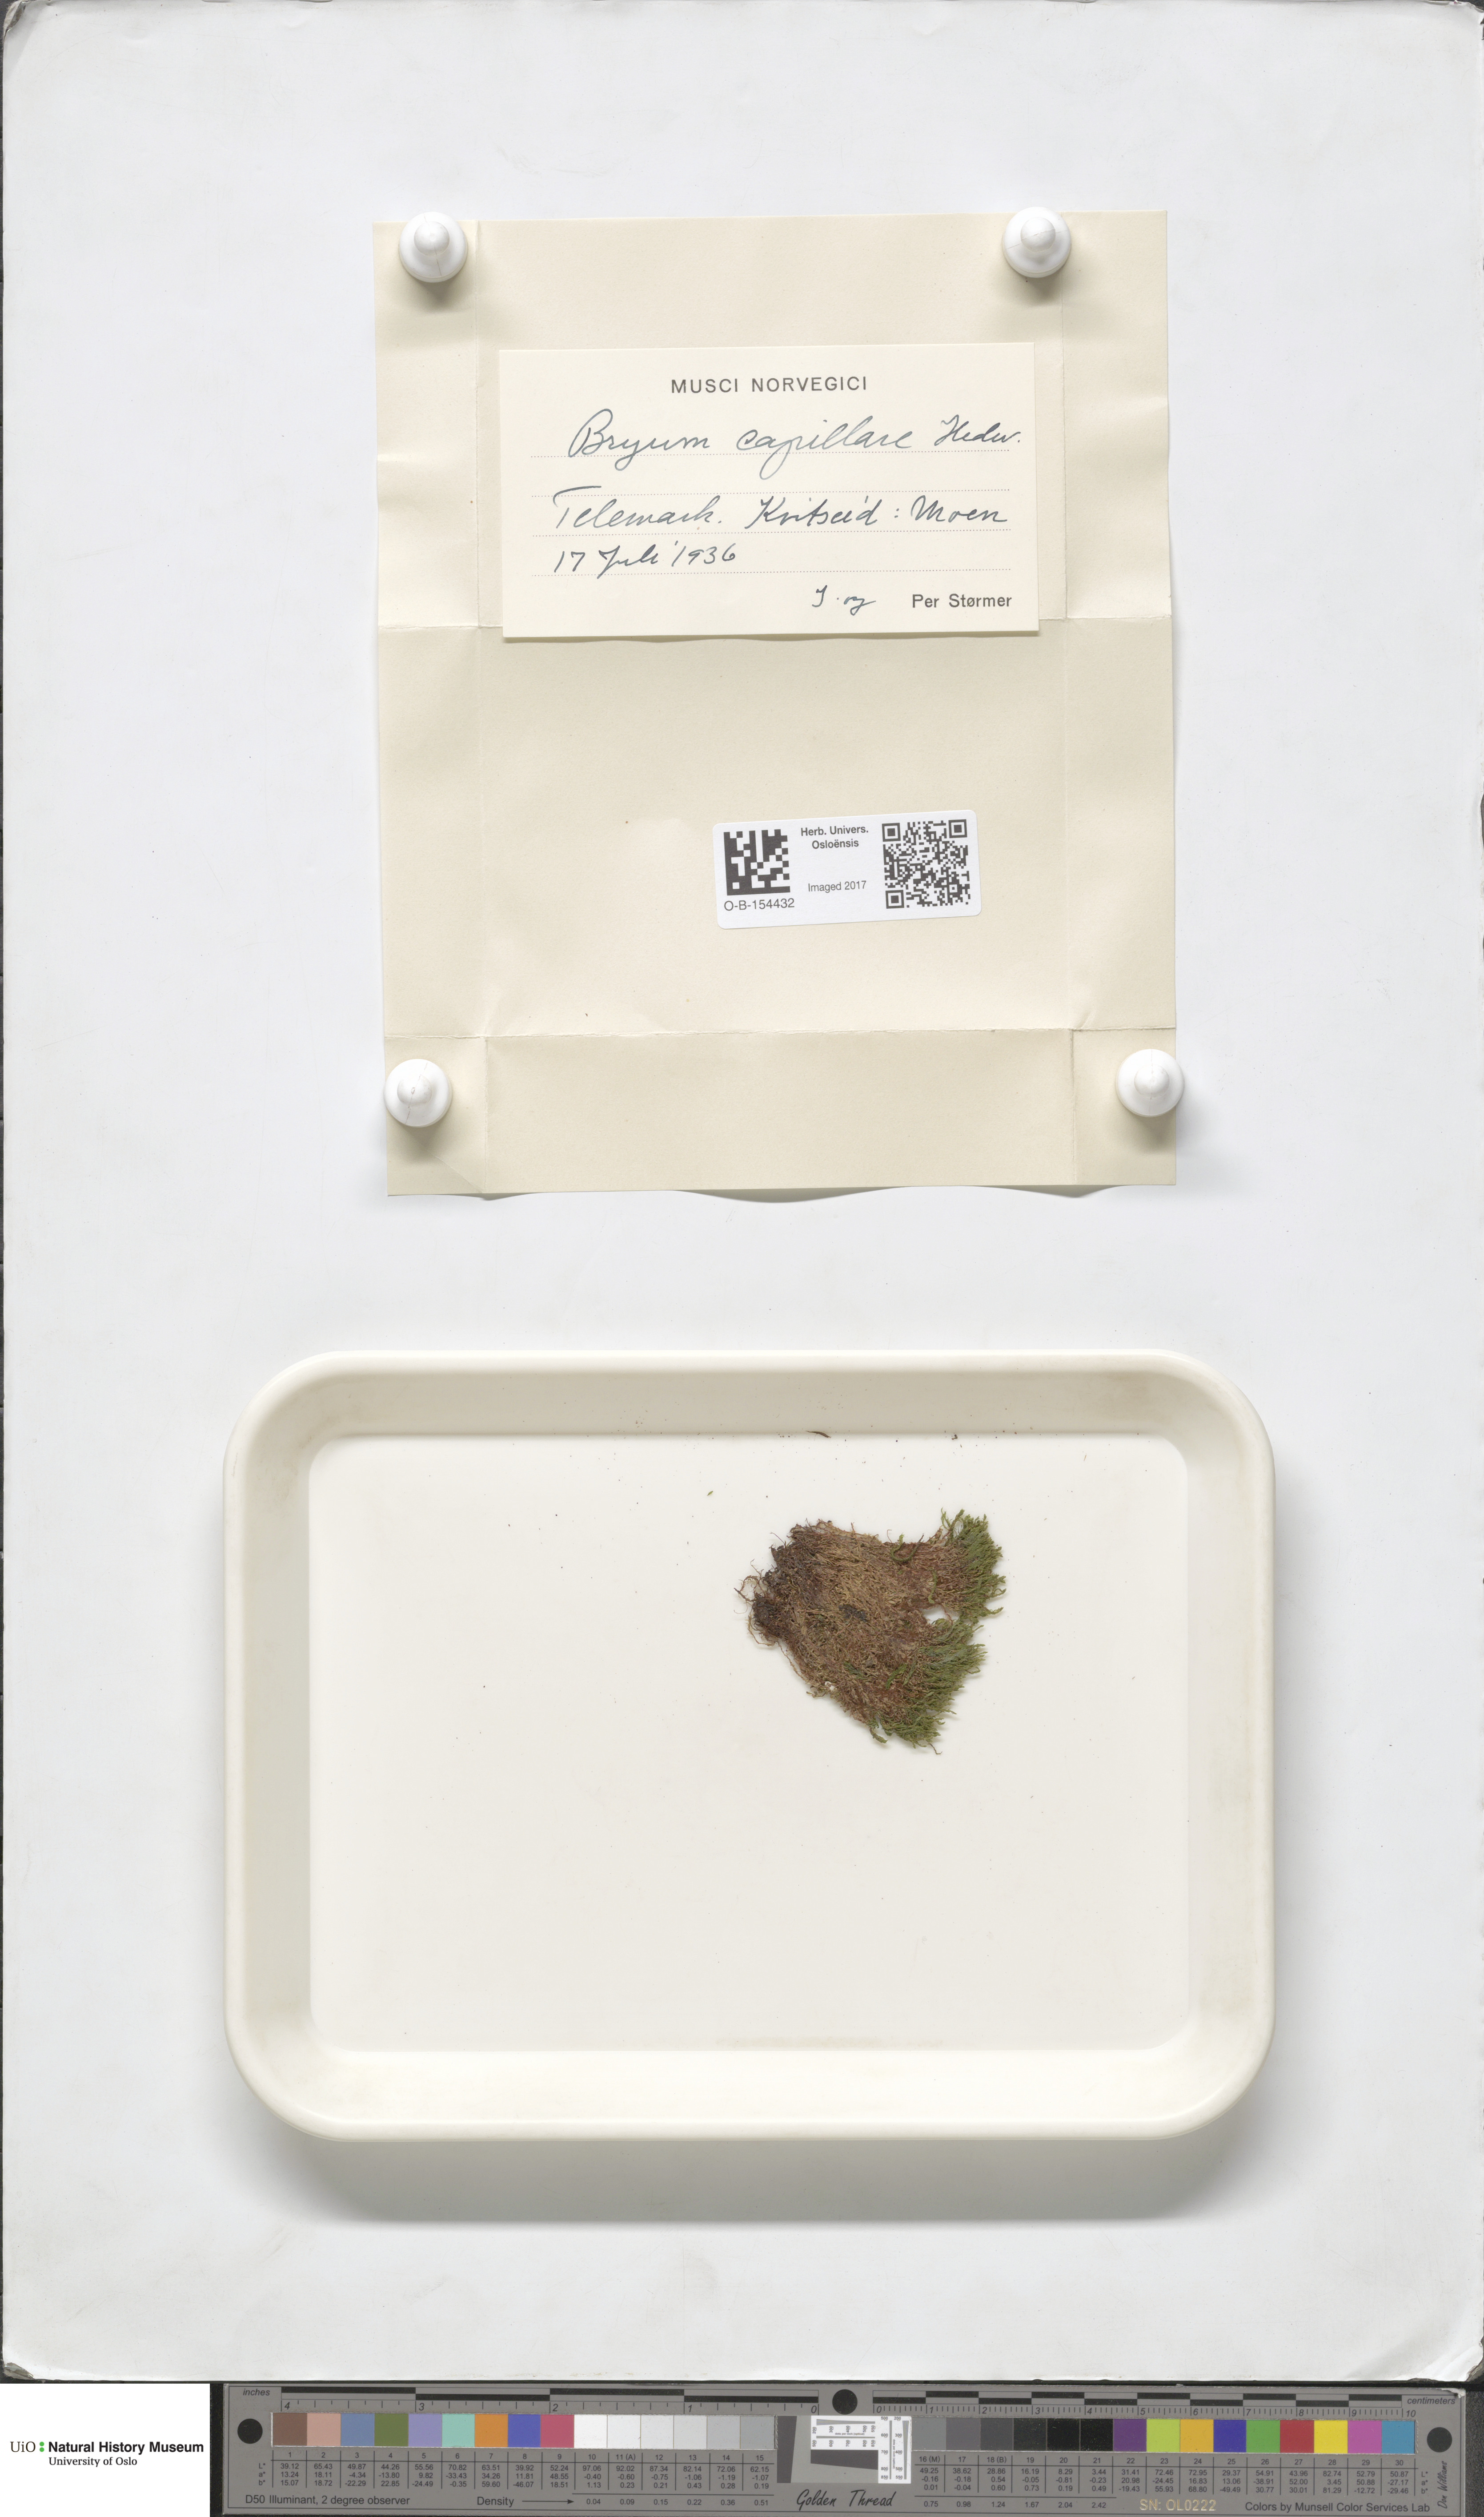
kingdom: Plantae
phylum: Bryophyta
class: Bryopsida
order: Bryales
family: Bryaceae
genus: Rosulabryum
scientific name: Rosulabryum capillare
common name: Capillary thread-moss
